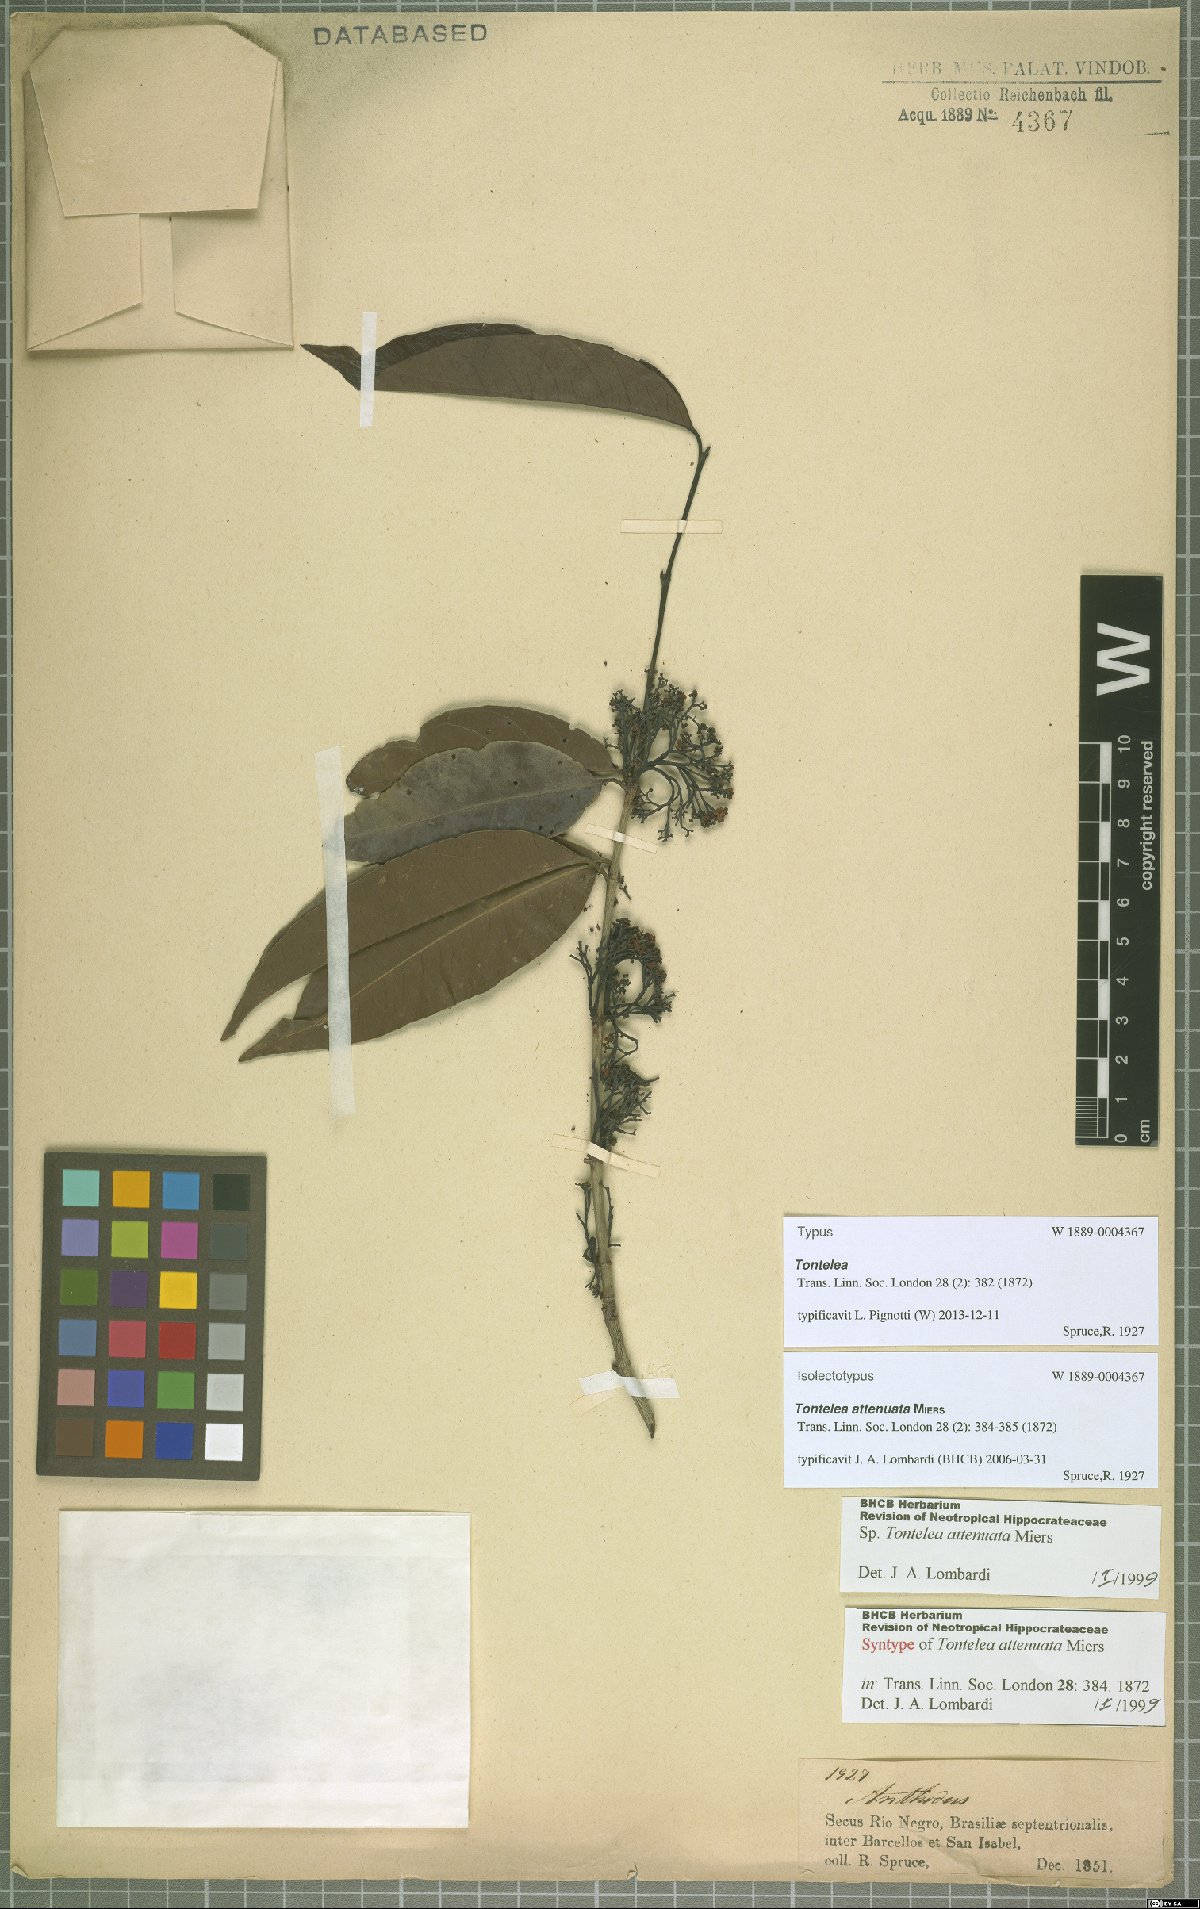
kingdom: Plantae
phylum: Tracheophyta
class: Magnoliopsida
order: Celastrales
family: Celastraceae
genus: Tontelea
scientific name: Tontelea attenuata
